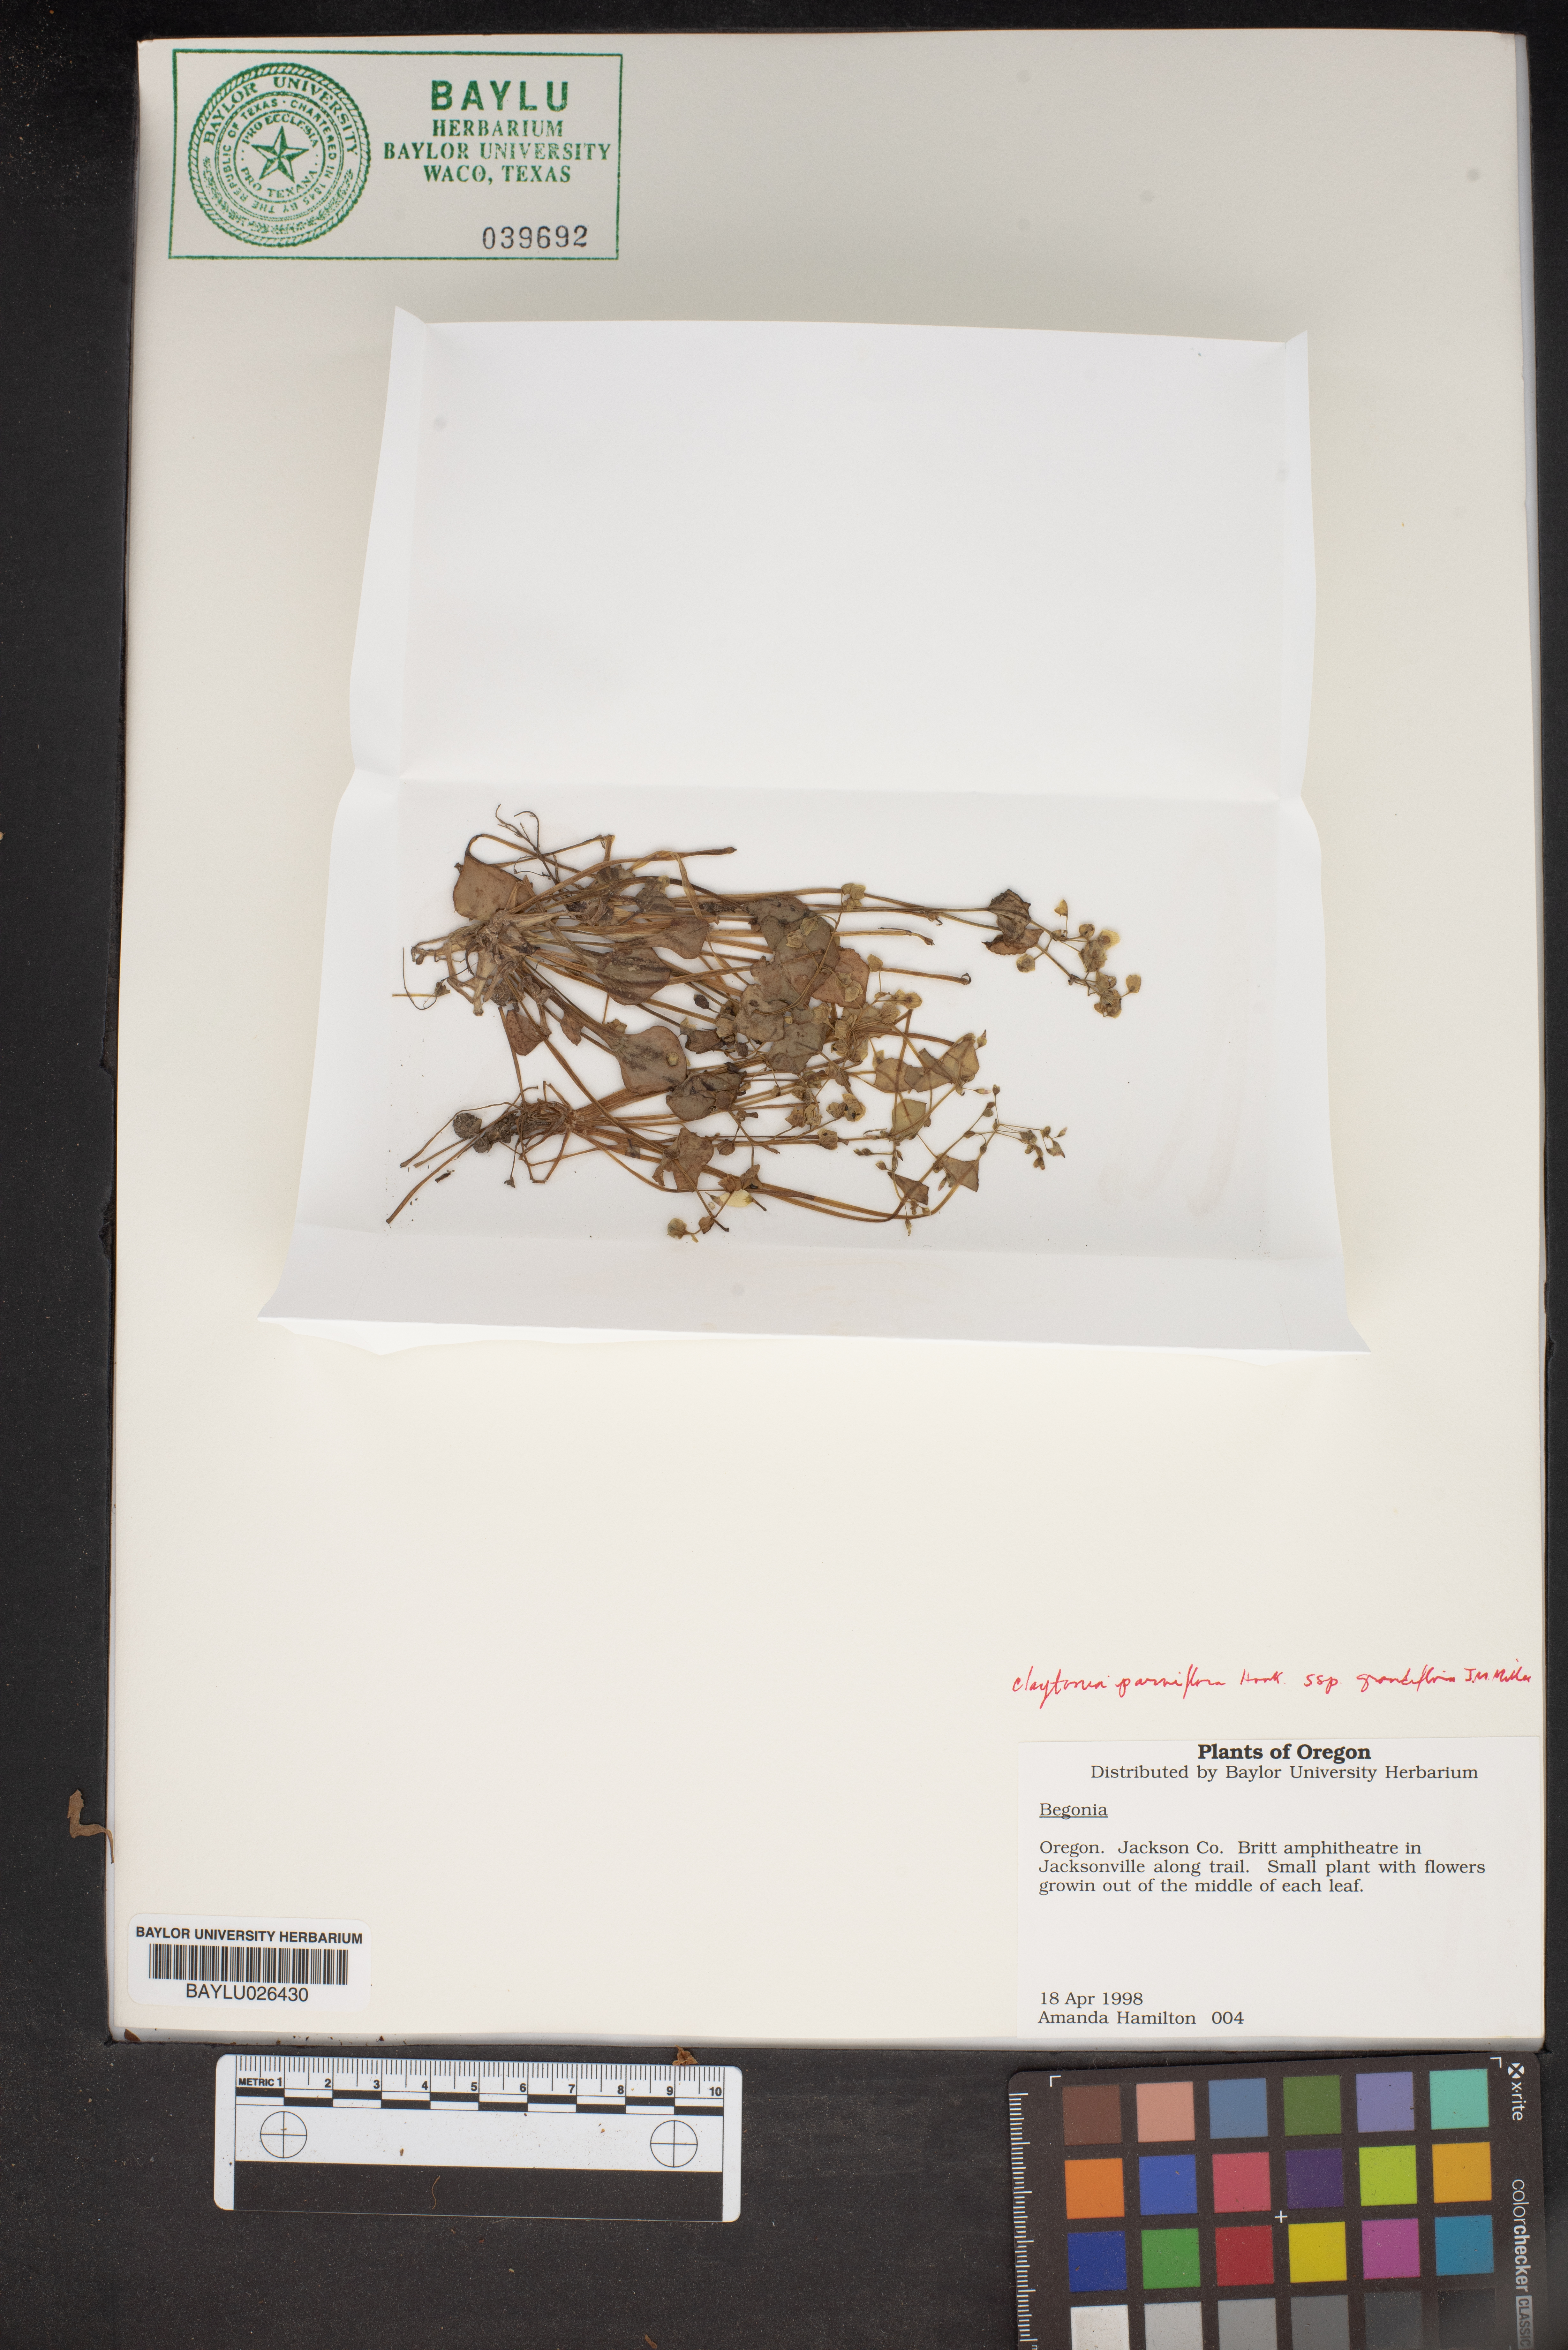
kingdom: Plantae
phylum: Tracheophyta
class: Magnoliopsida
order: Caryophyllales
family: Montiaceae
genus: Claytonia
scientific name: Claytonia parviflora
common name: Indian-lettuce
